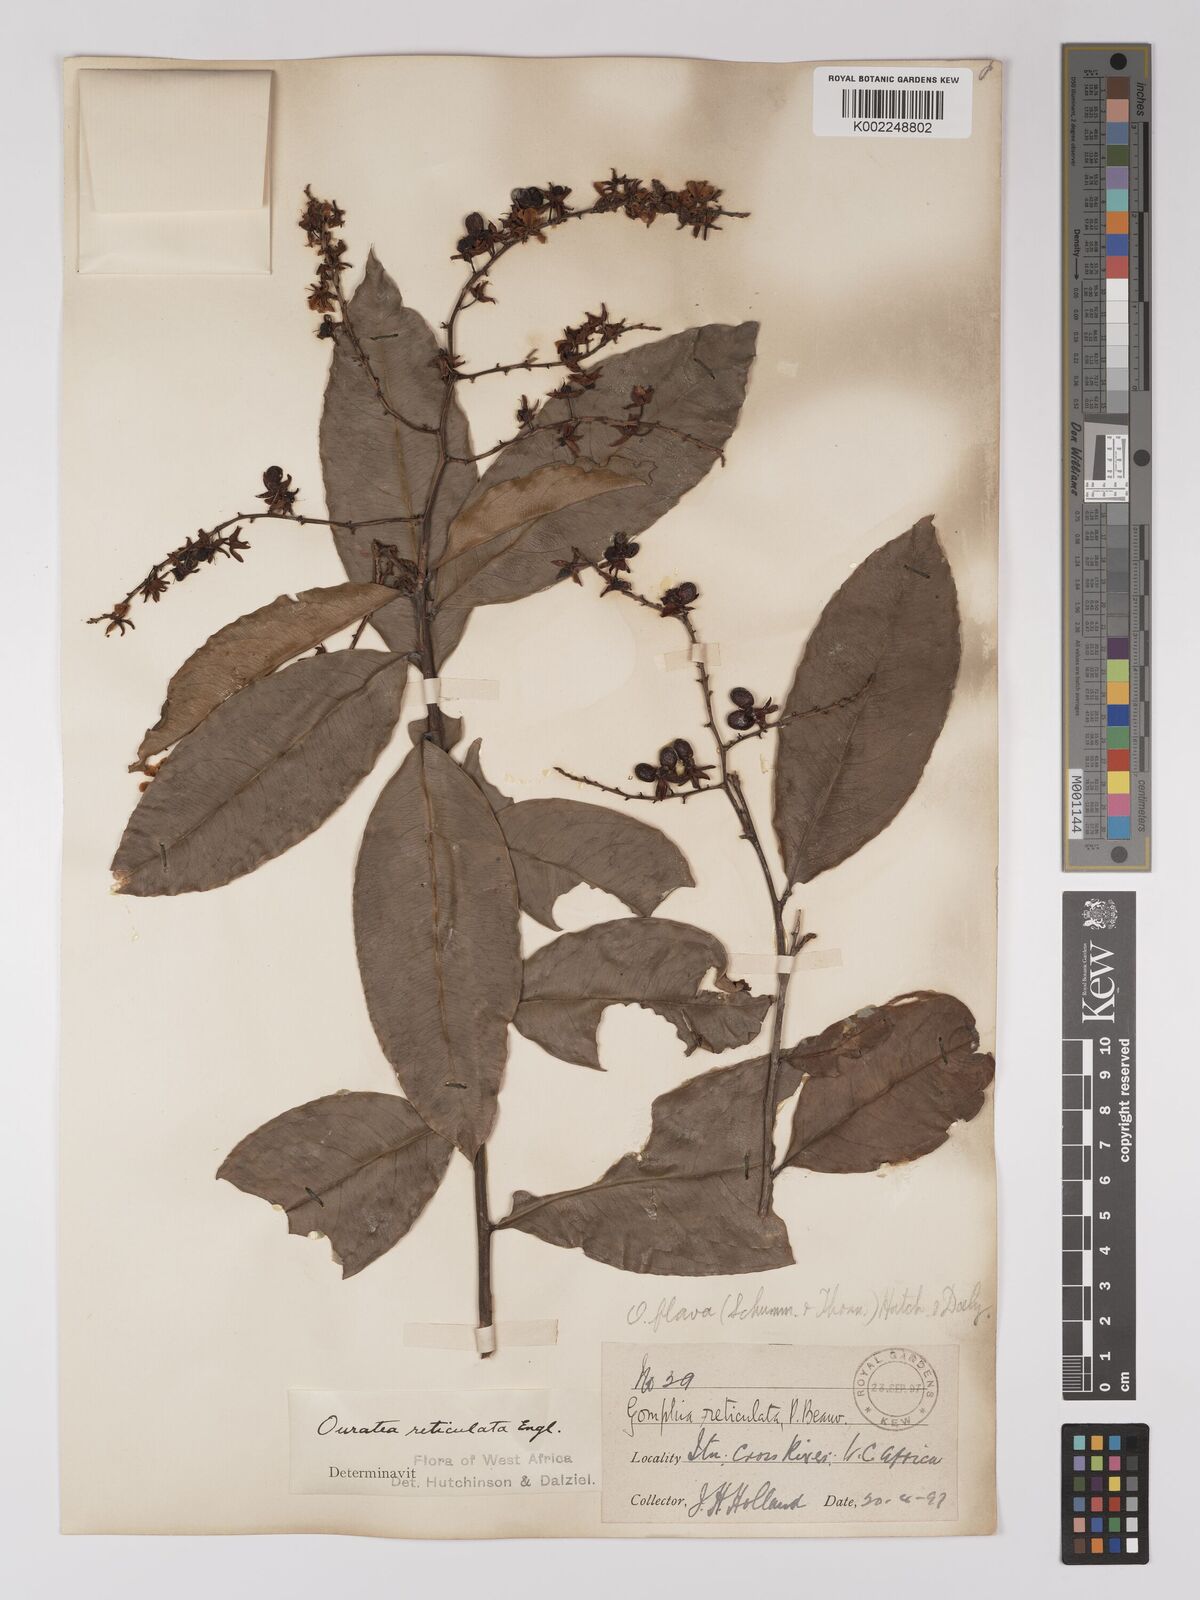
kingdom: Plantae
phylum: Tracheophyta
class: Magnoliopsida
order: Malpighiales
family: Ochnaceae
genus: Campylospermum
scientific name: Campylospermum flavum
